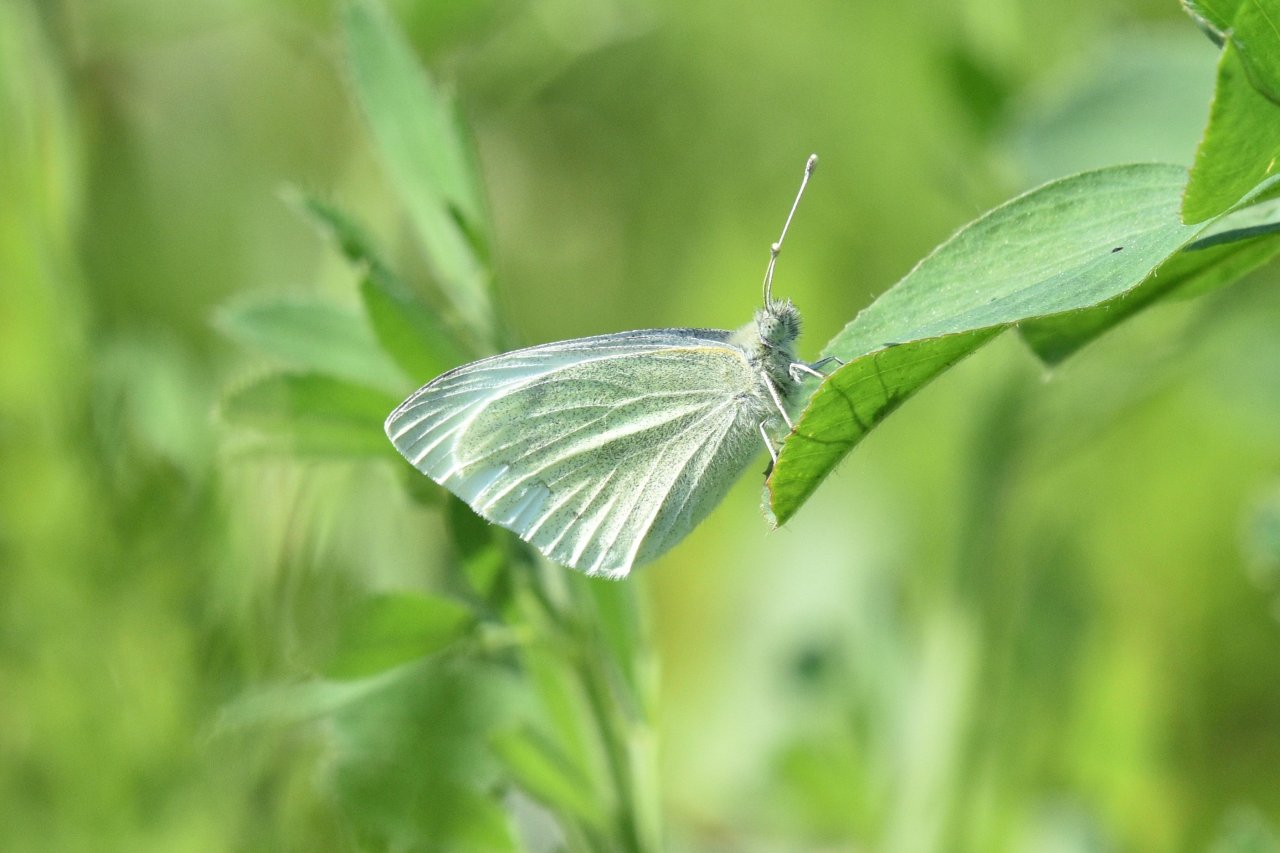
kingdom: Animalia
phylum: Arthropoda
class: Insecta
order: Lepidoptera
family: Pieridae
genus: Pieris
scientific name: Pieris rapae
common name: Cabbage White
